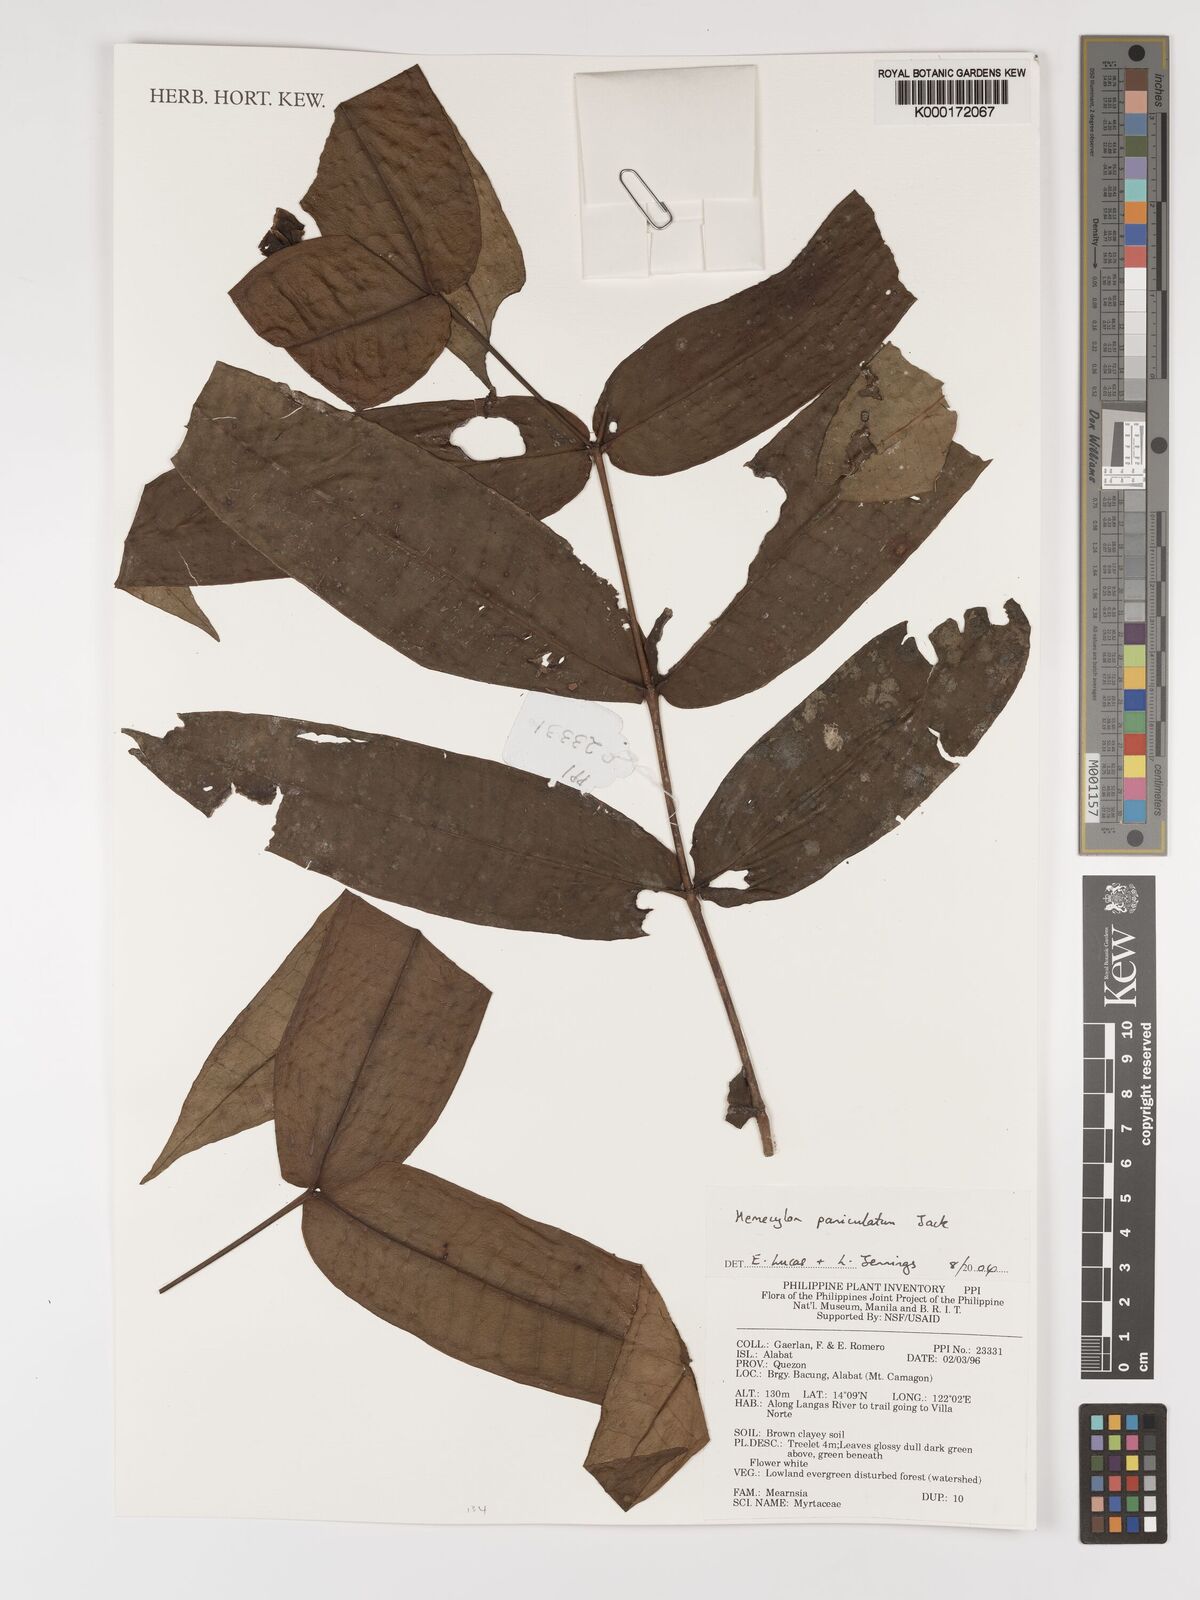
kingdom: Plantae
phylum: Tracheophyta
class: Magnoliopsida
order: Myrtales
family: Melastomataceae
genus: Memecylon
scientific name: Memecylon paniculatum
